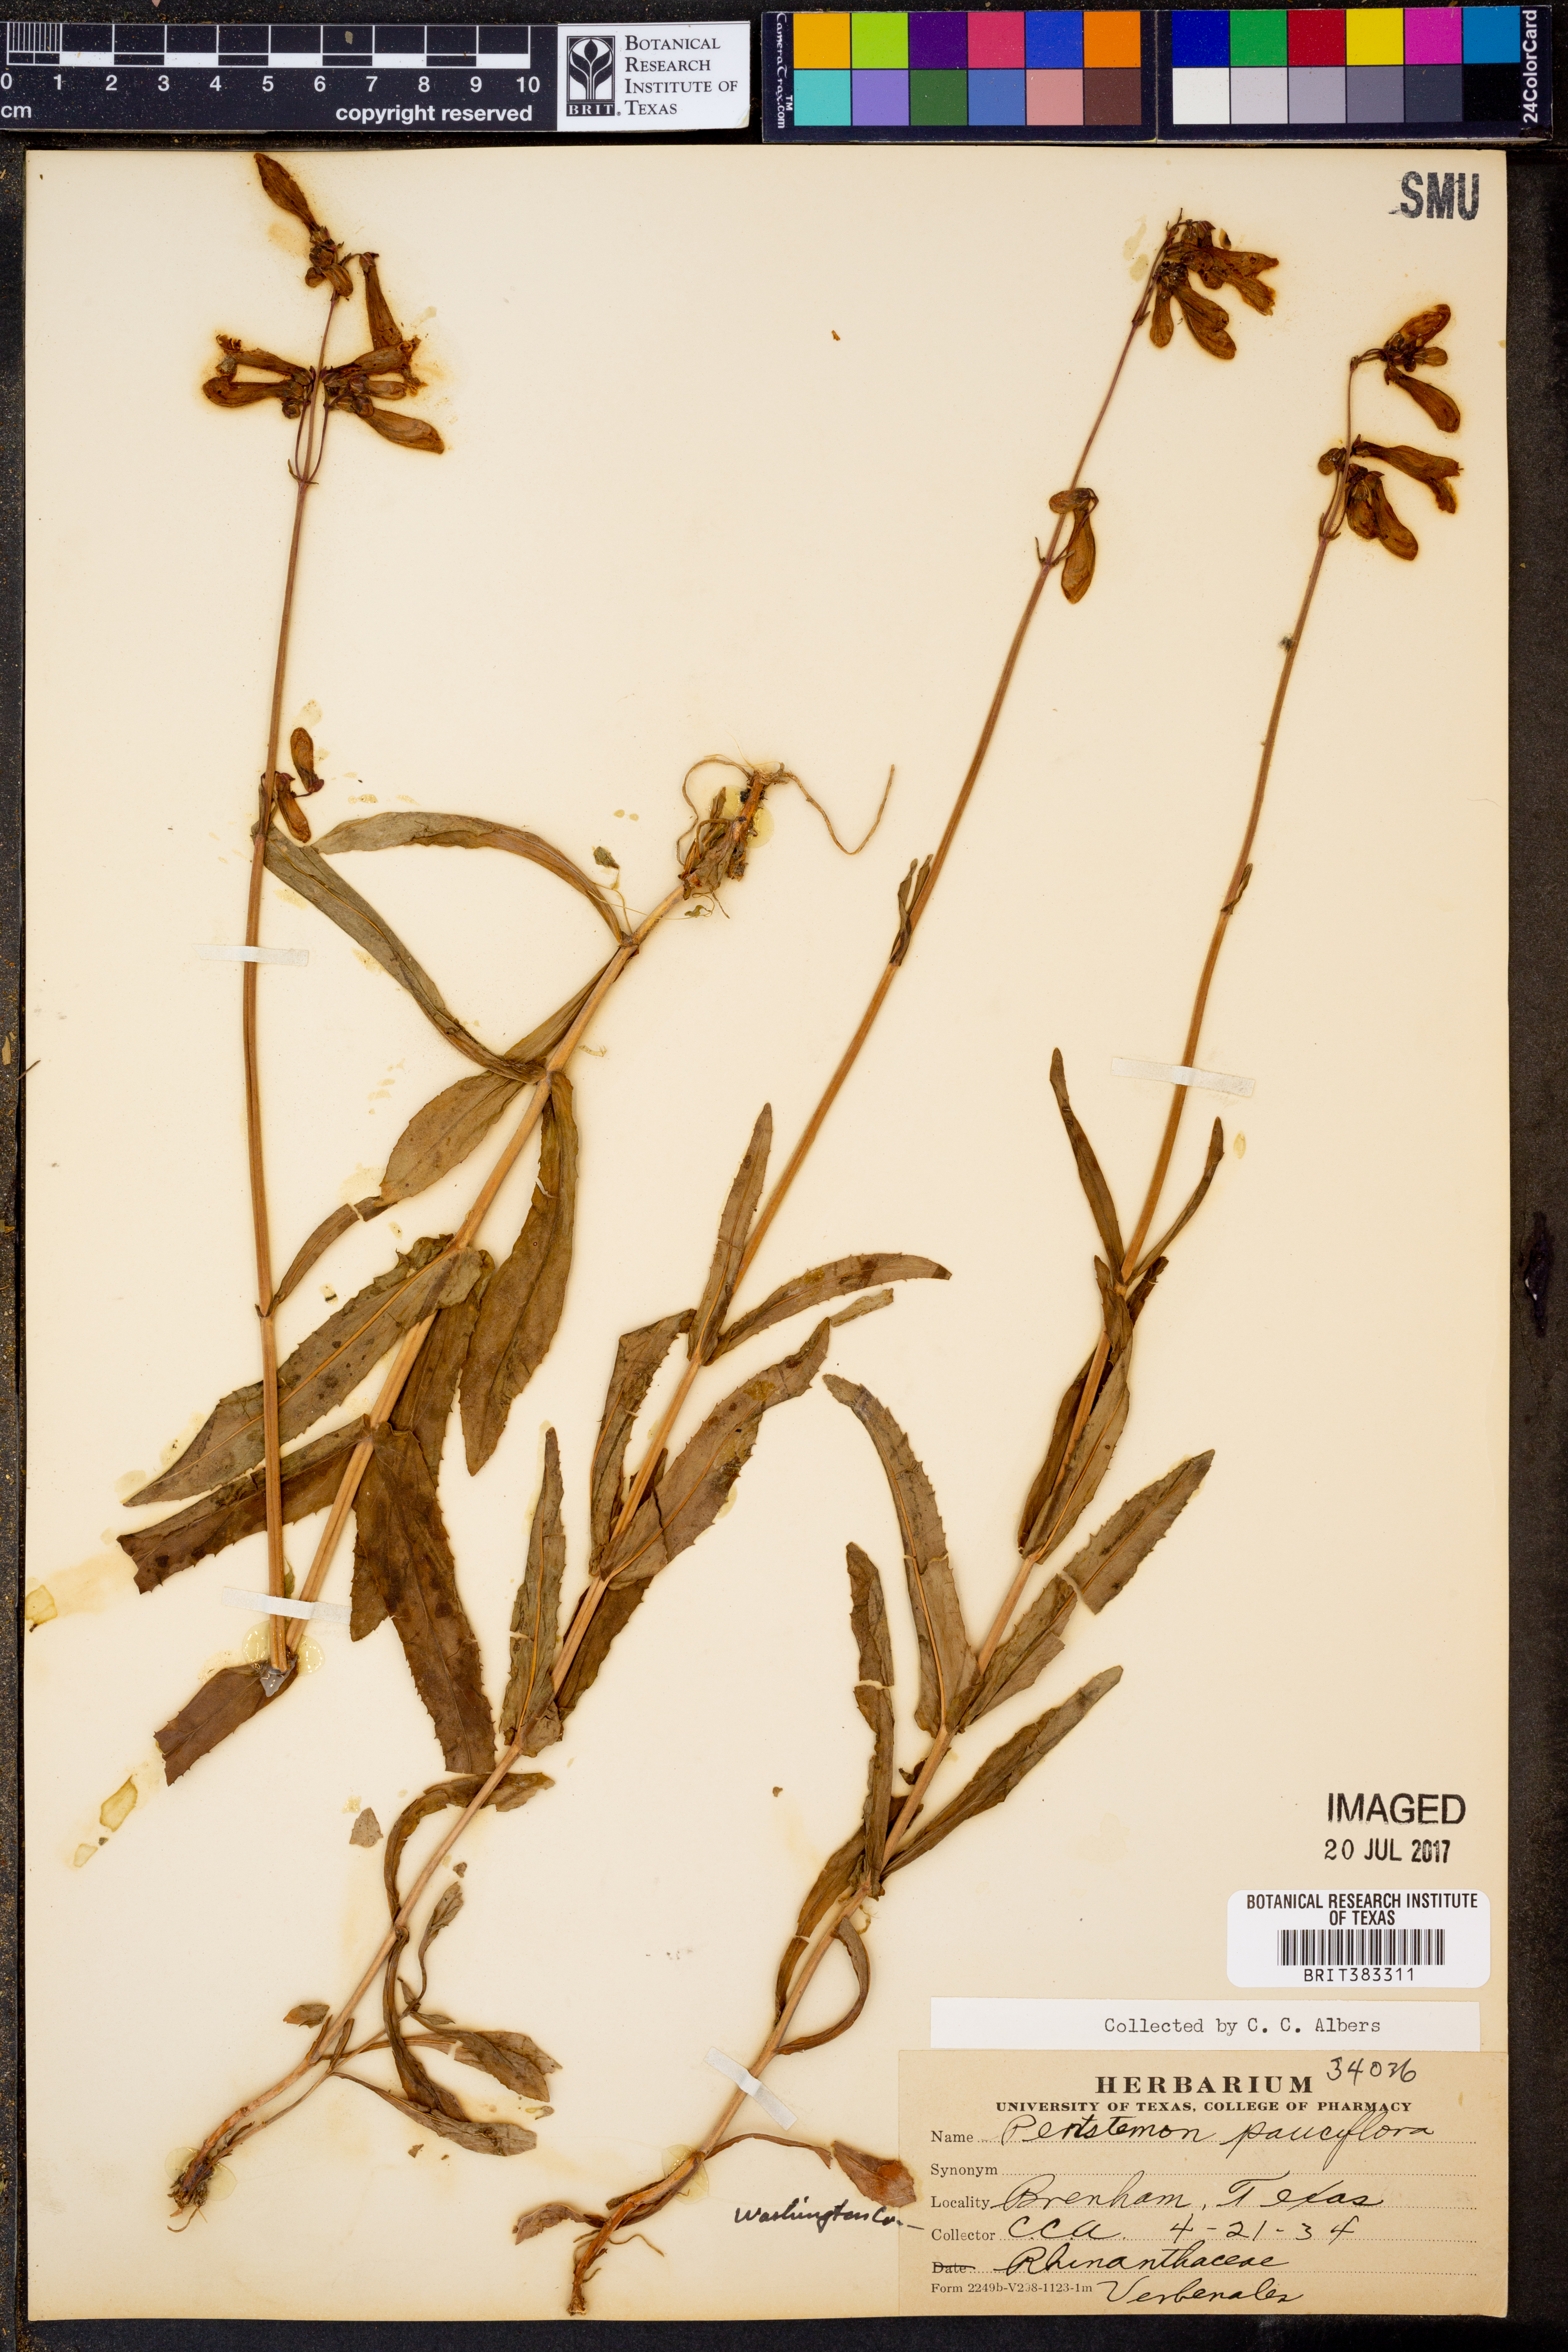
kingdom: Plantae
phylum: Tracheophyta
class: Magnoliopsida
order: Lamiales
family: Plantaginaceae
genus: Penstemon
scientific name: Penstemon lanceolatus
